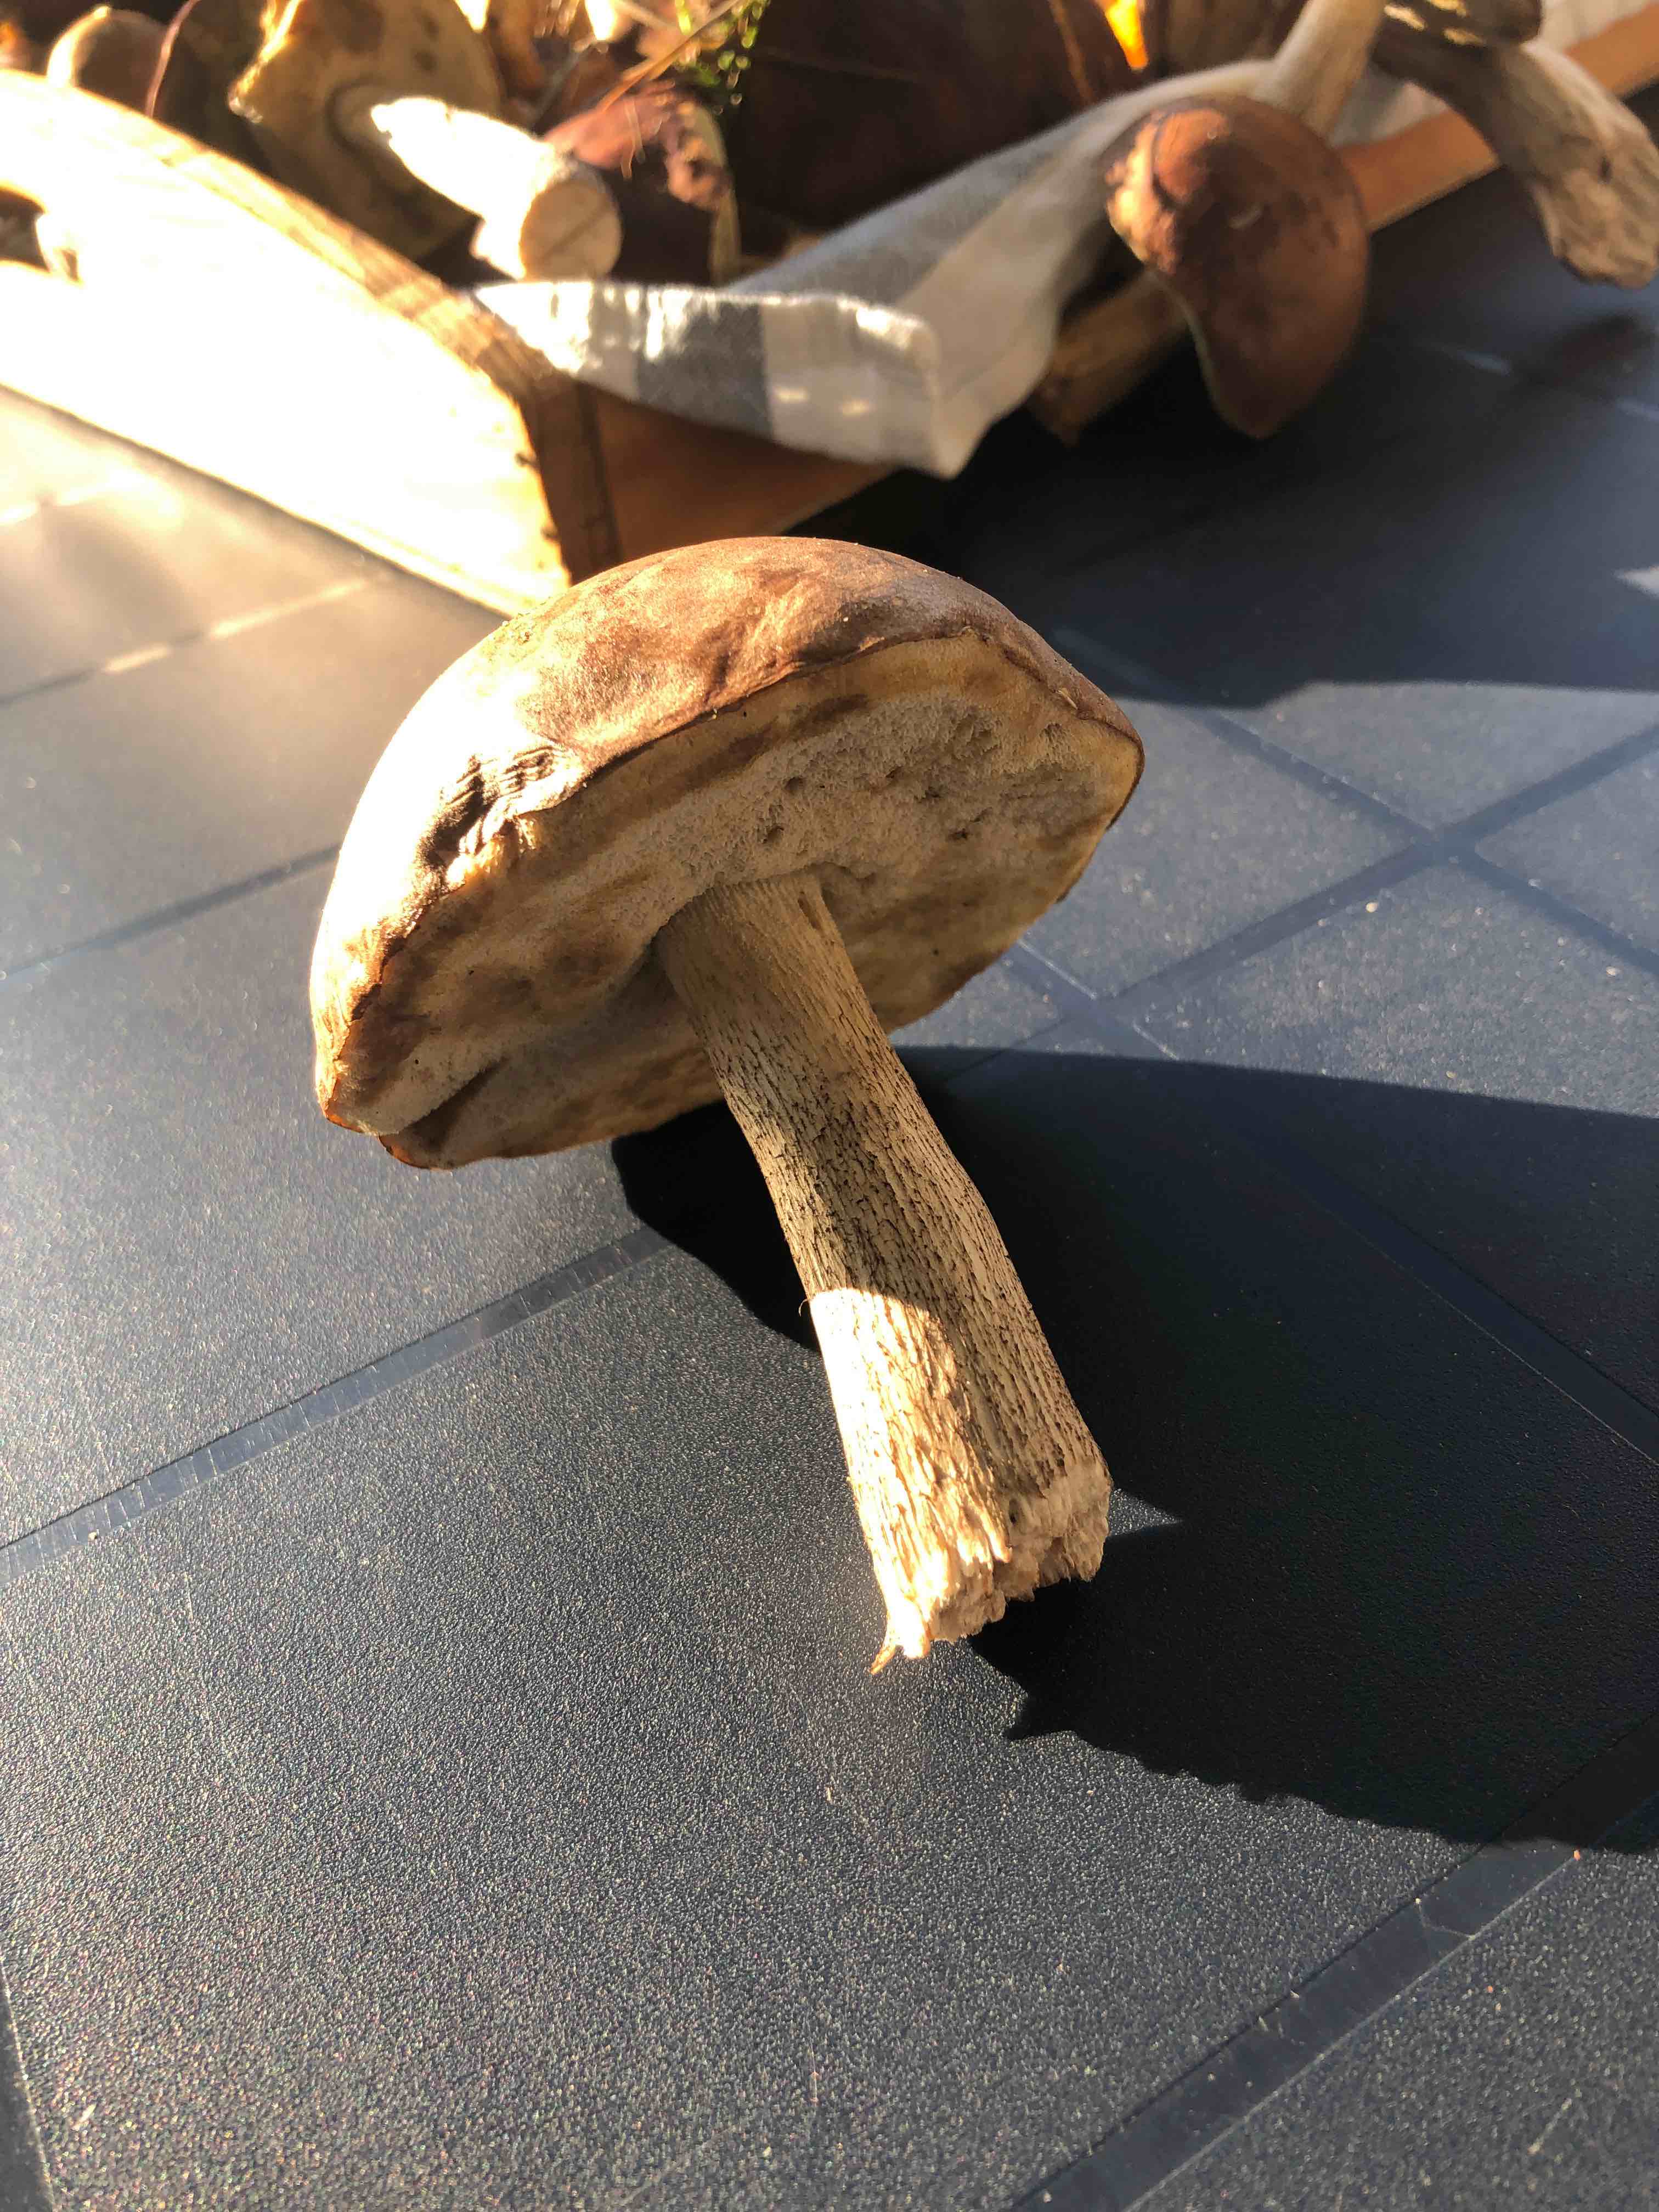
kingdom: Fungi
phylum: Basidiomycota
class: Agaricomycetes
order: Boletales
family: Boletaceae
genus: Leccinum
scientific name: Leccinum
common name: skælrørhat
